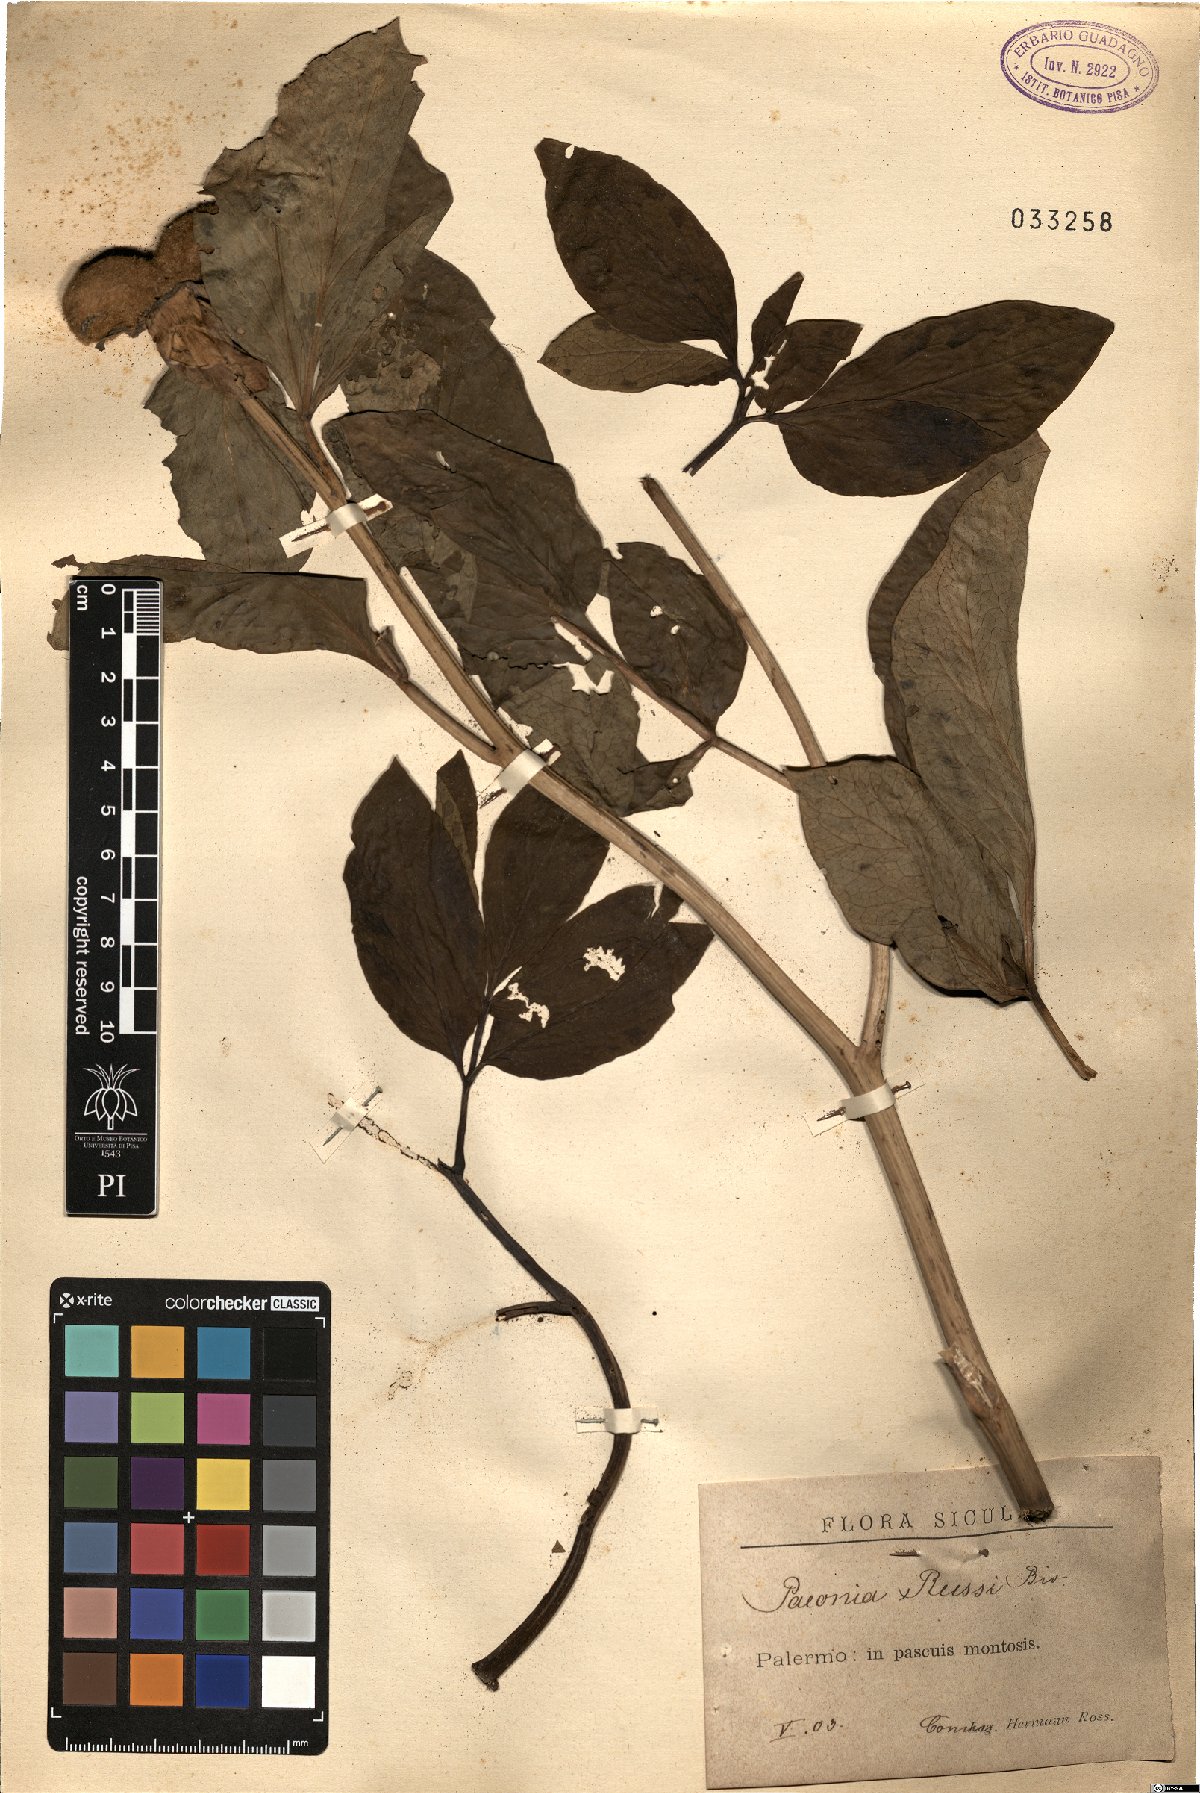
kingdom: Plantae
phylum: Tracheophyta
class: Magnoliopsida
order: Saxifragales
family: Paeoniaceae
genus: Paeonia
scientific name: Paeonia mascula
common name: Peony
